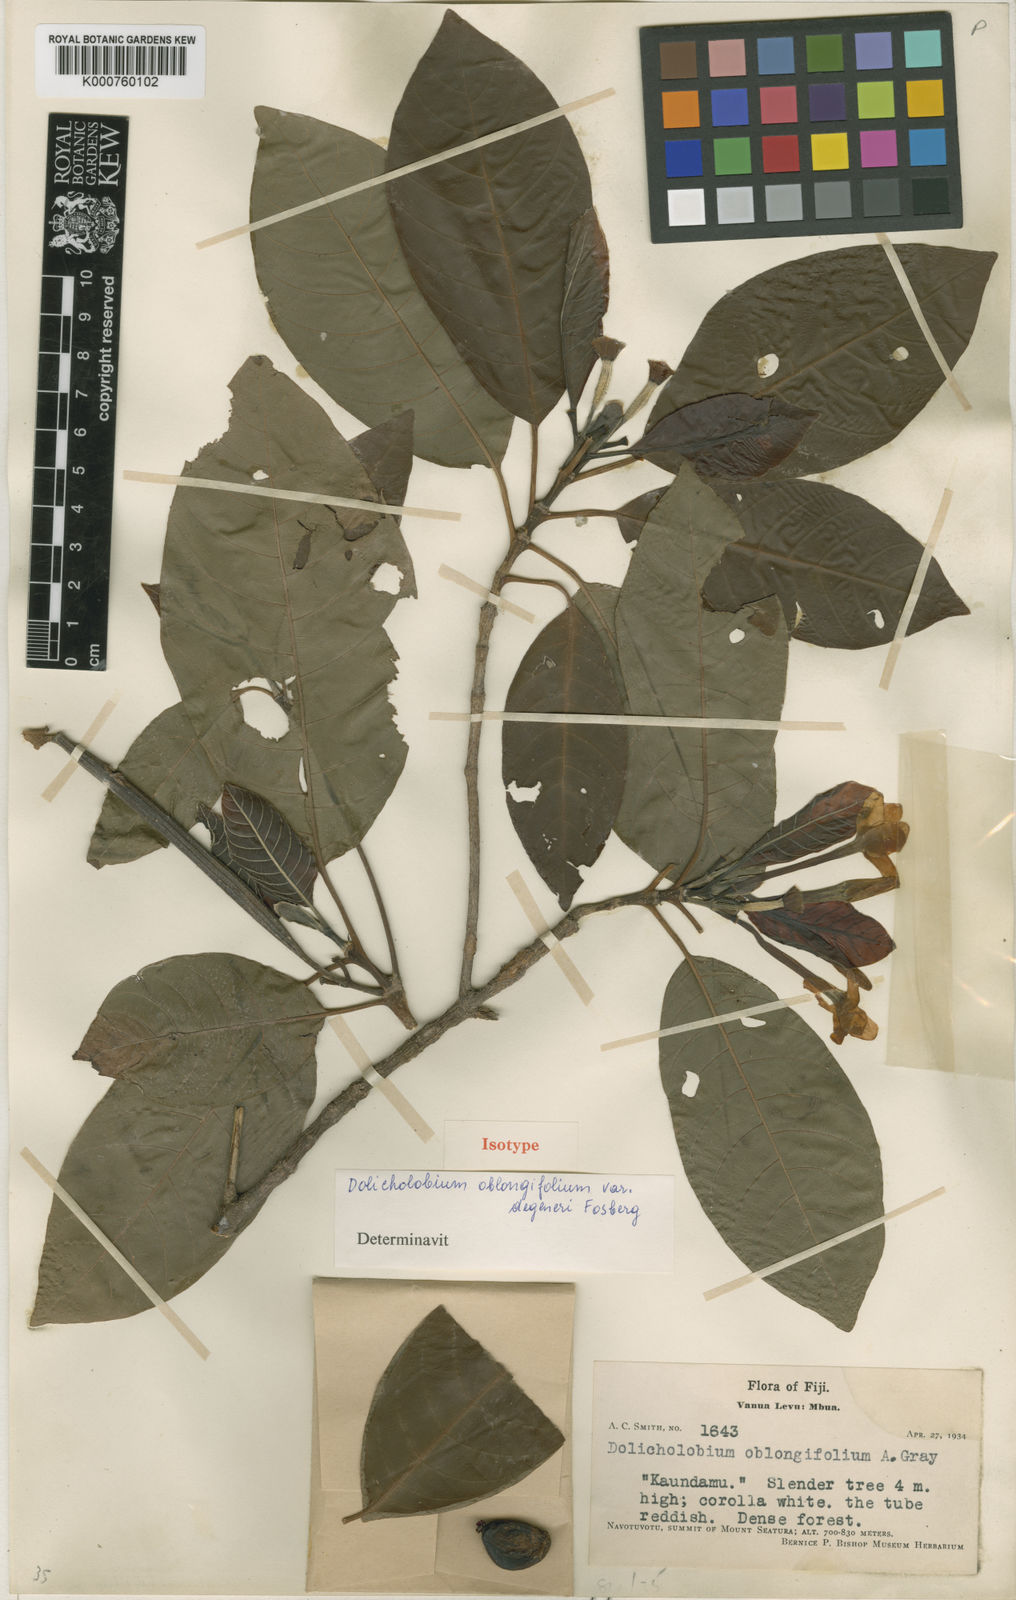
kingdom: Plantae
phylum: Tracheophyta
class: Magnoliopsida
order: Gentianales
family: Rubiaceae
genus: Dolicholobium
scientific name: Dolicholobium oblongifolium
